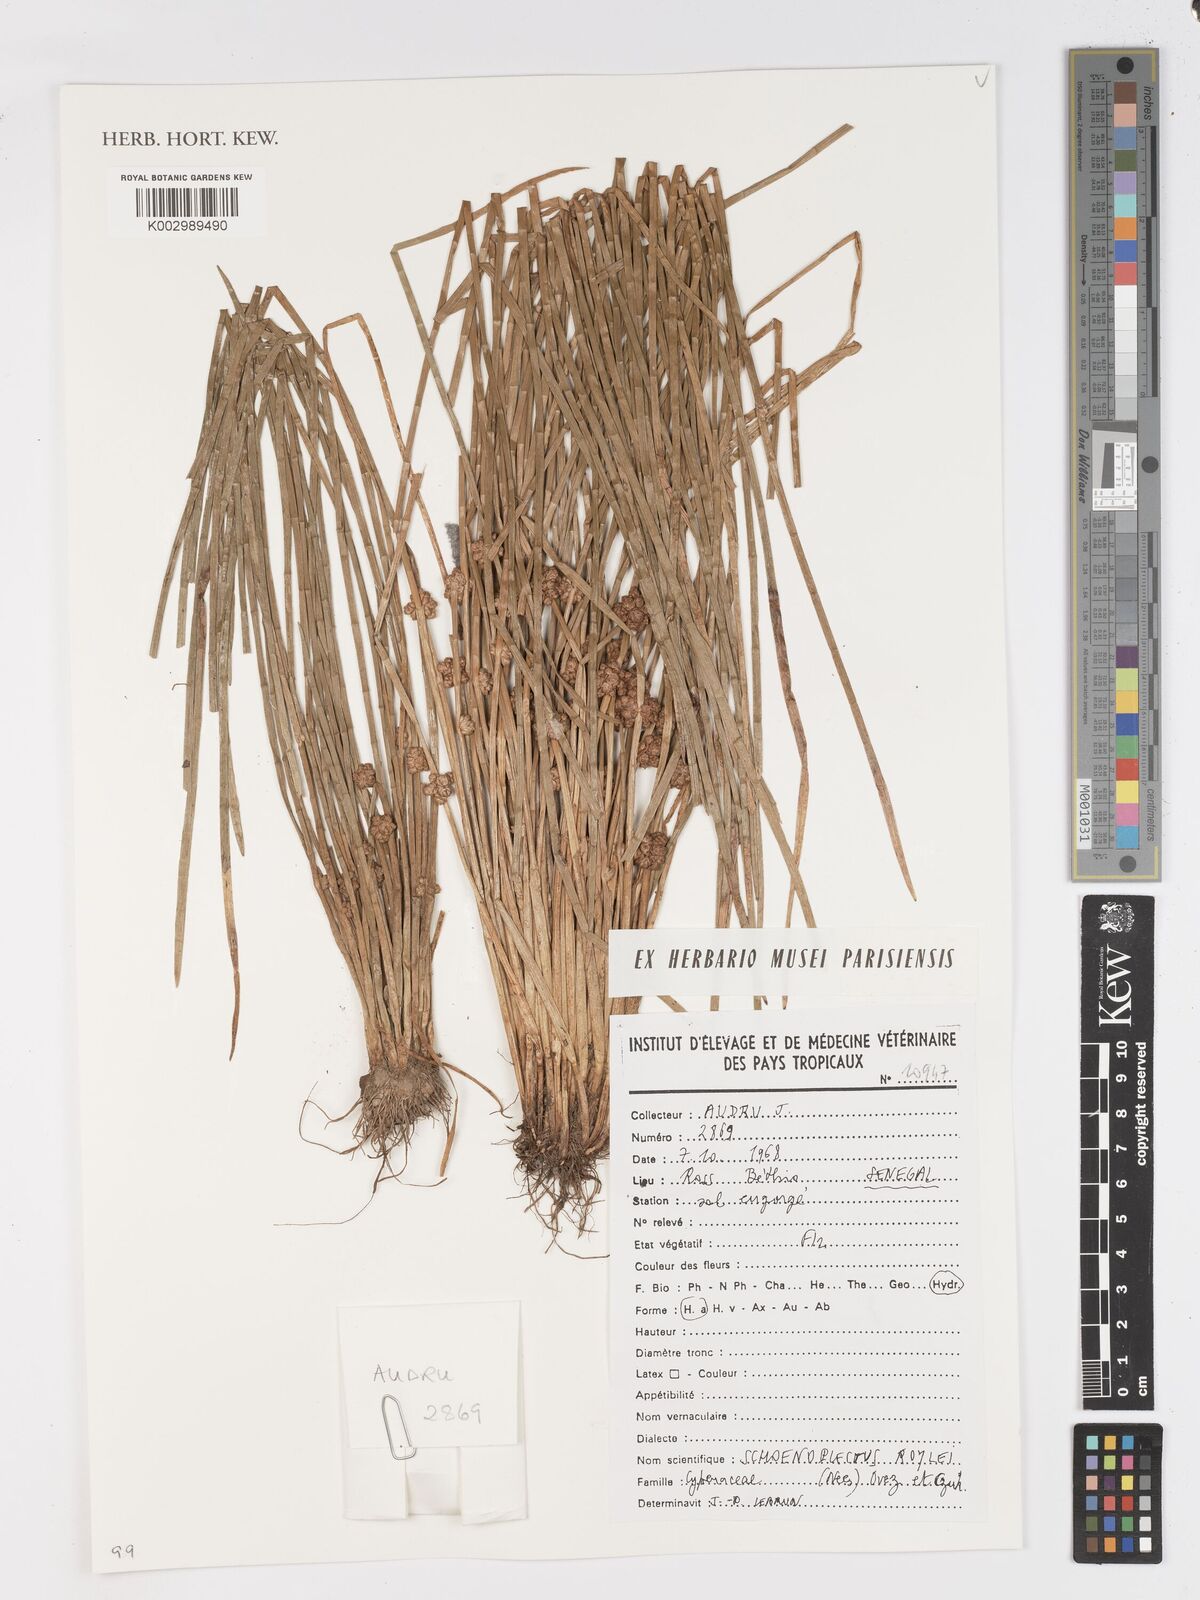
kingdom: Plantae
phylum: Tracheophyta
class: Liliopsida
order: Poales
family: Cyperaceae
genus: Schoenoplectiella
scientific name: Schoenoplectiella roylei
